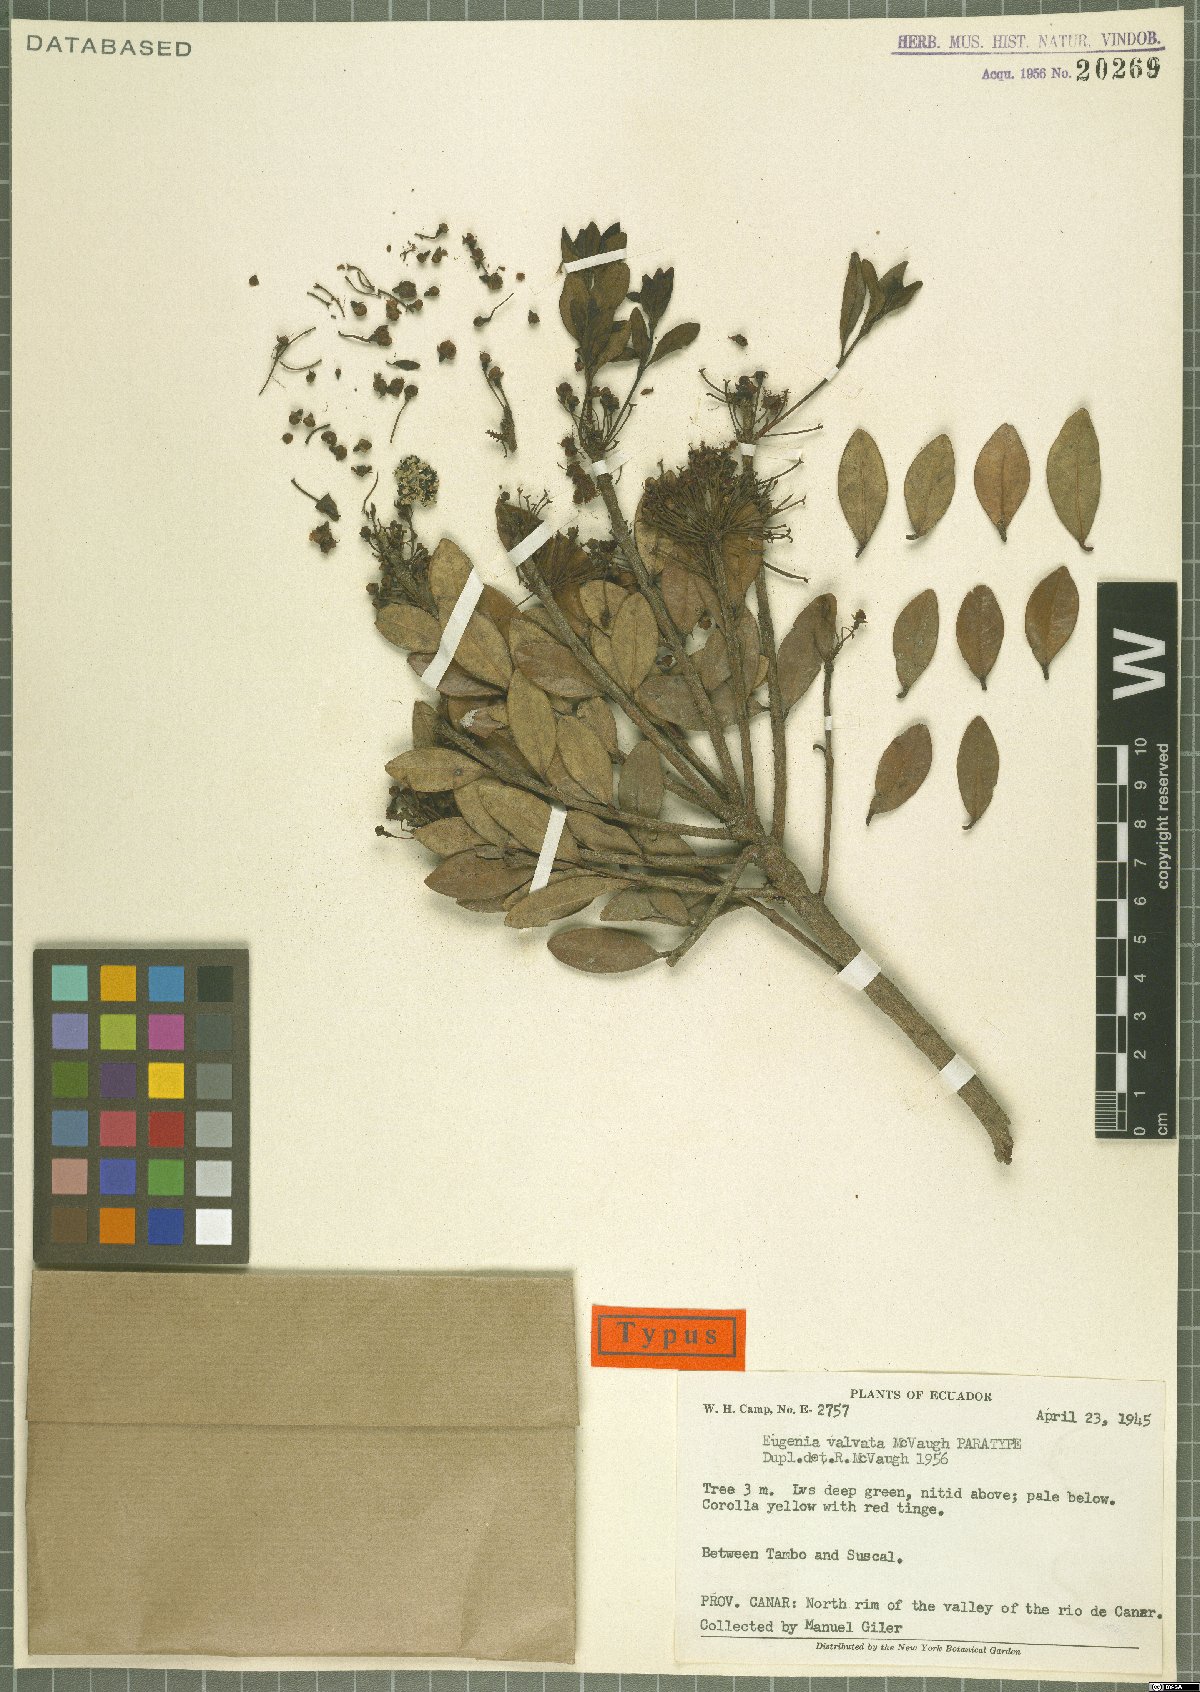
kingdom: Plantae
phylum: Tracheophyta
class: Magnoliopsida
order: Myrtales
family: Myrtaceae
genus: Eugenia
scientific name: Eugenia valvata
